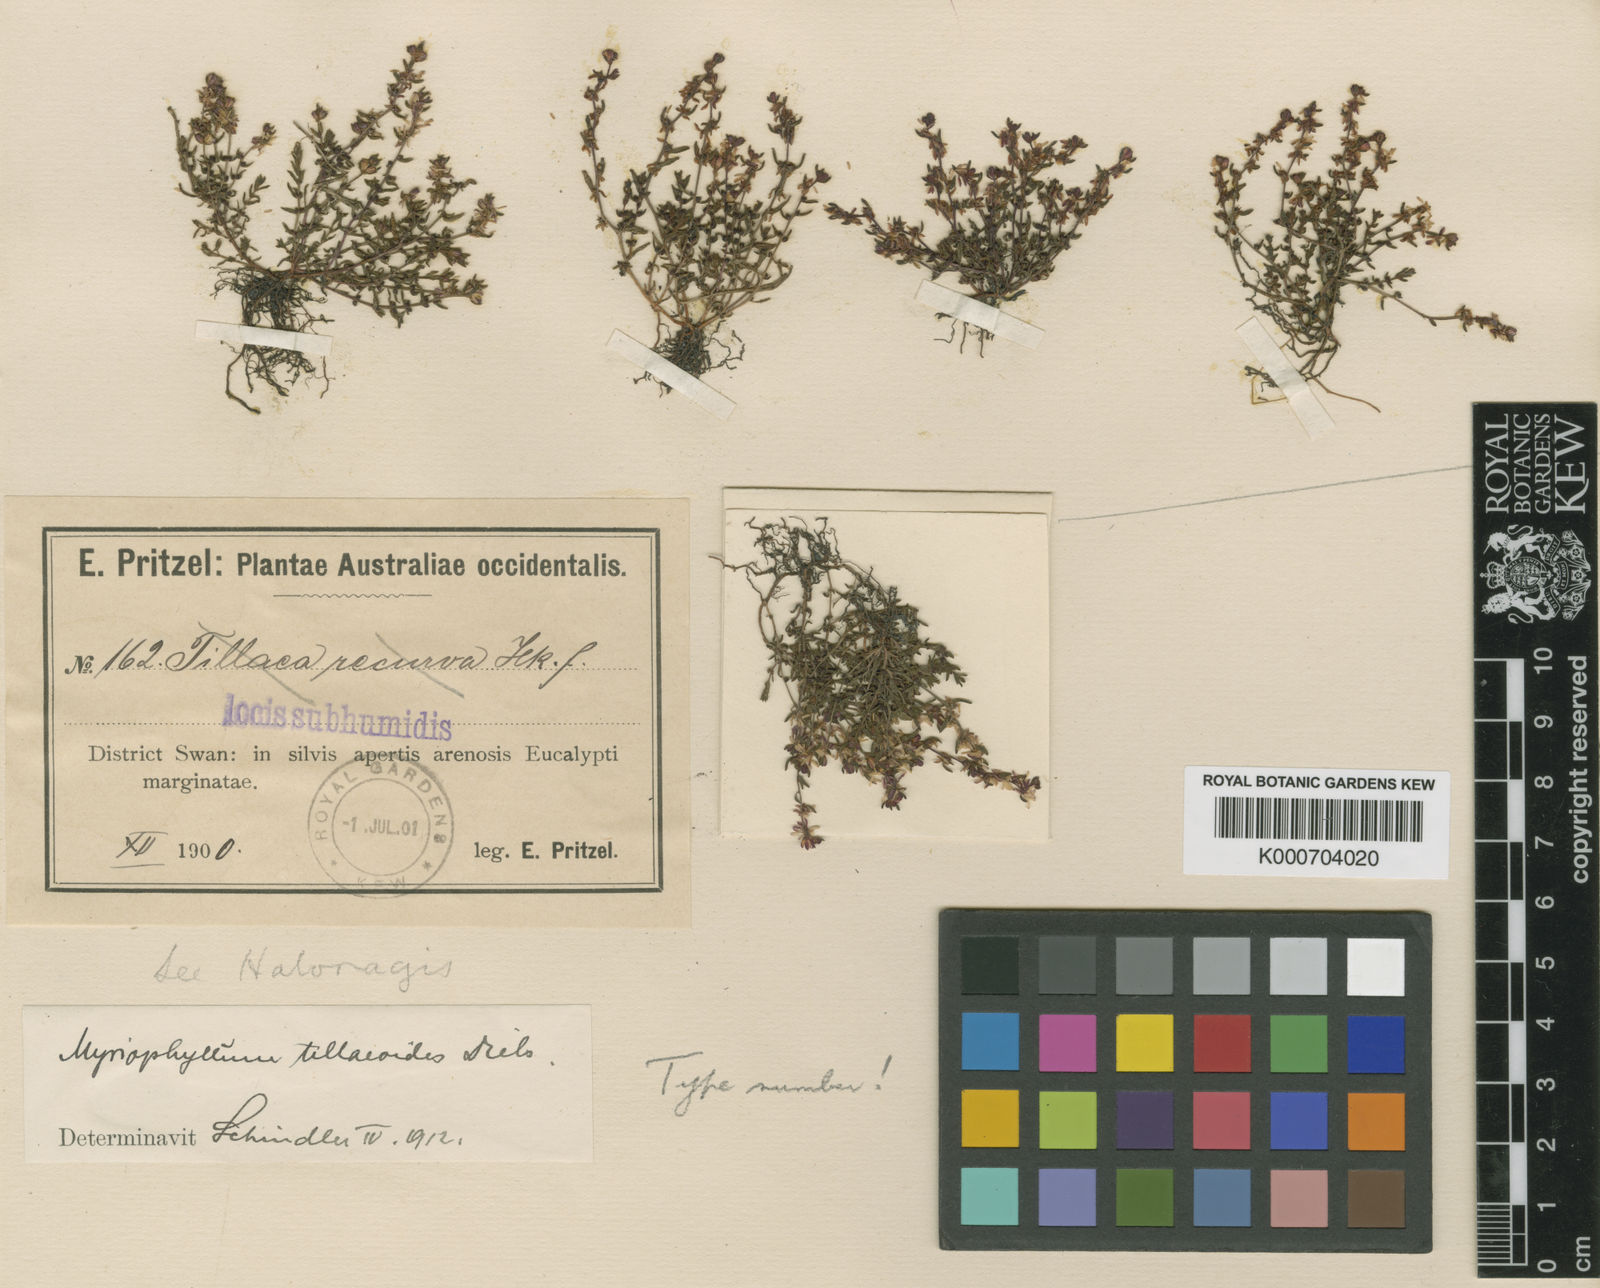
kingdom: Plantae
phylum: Tracheophyta
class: Magnoliopsida
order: Saxifragales
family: Haloragaceae
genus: Myriophyllum
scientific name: Myriophyllum tillaeoides
